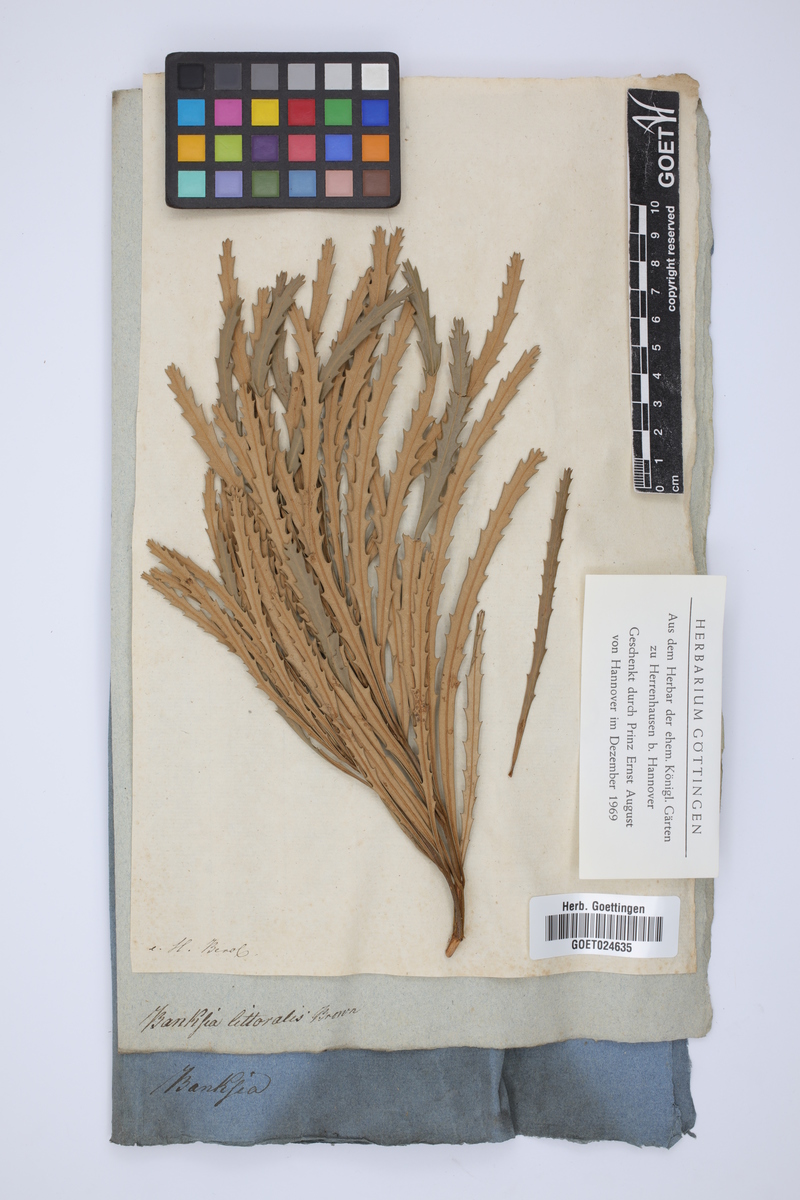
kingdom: Plantae
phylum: Tracheophyta
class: Magnoliopsida
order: Proteales
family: Proteaceae
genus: Banksia
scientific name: Banksia littoralis
